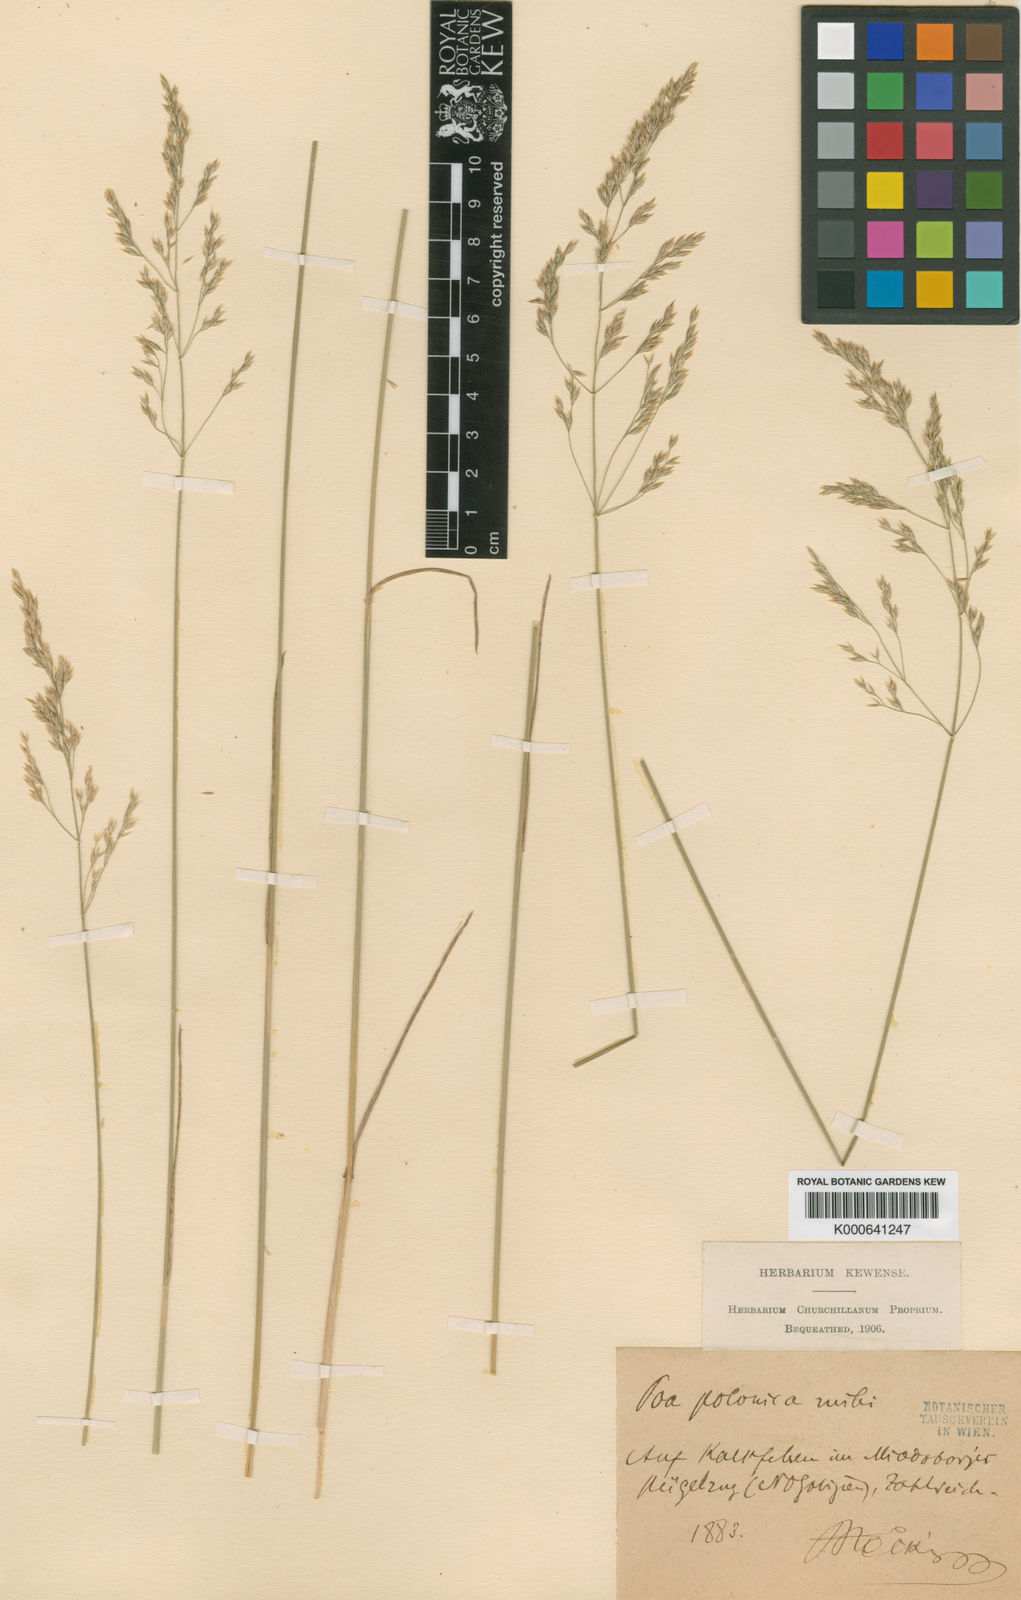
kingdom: Plantae
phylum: Tracheophyta
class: Liliopsida
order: Poales
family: Poaceae
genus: Poa
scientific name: Poa versicolor
